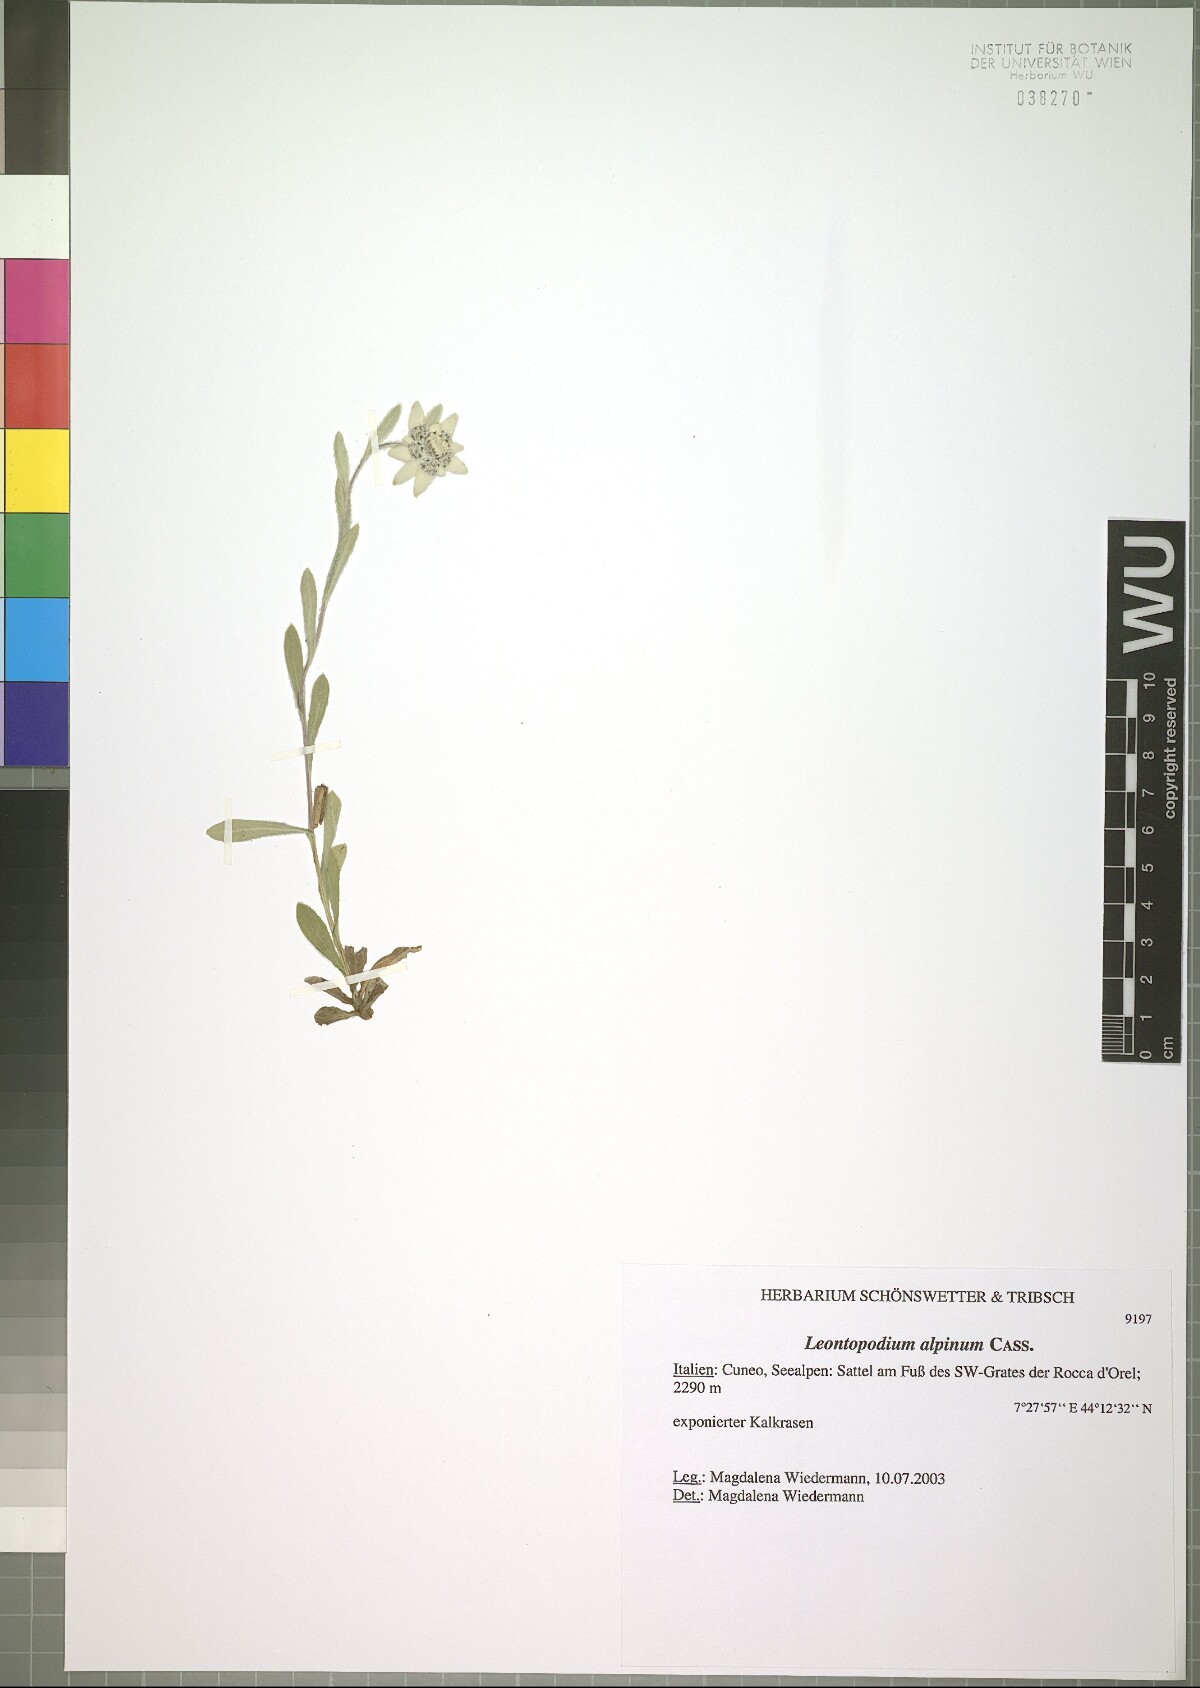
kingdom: Plantae
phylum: Tracheophyta
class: Magnoliopsida
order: Asterales
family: Asteraceae
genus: Leontopodium
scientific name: Leontopodium nivale
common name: Edelweiss
